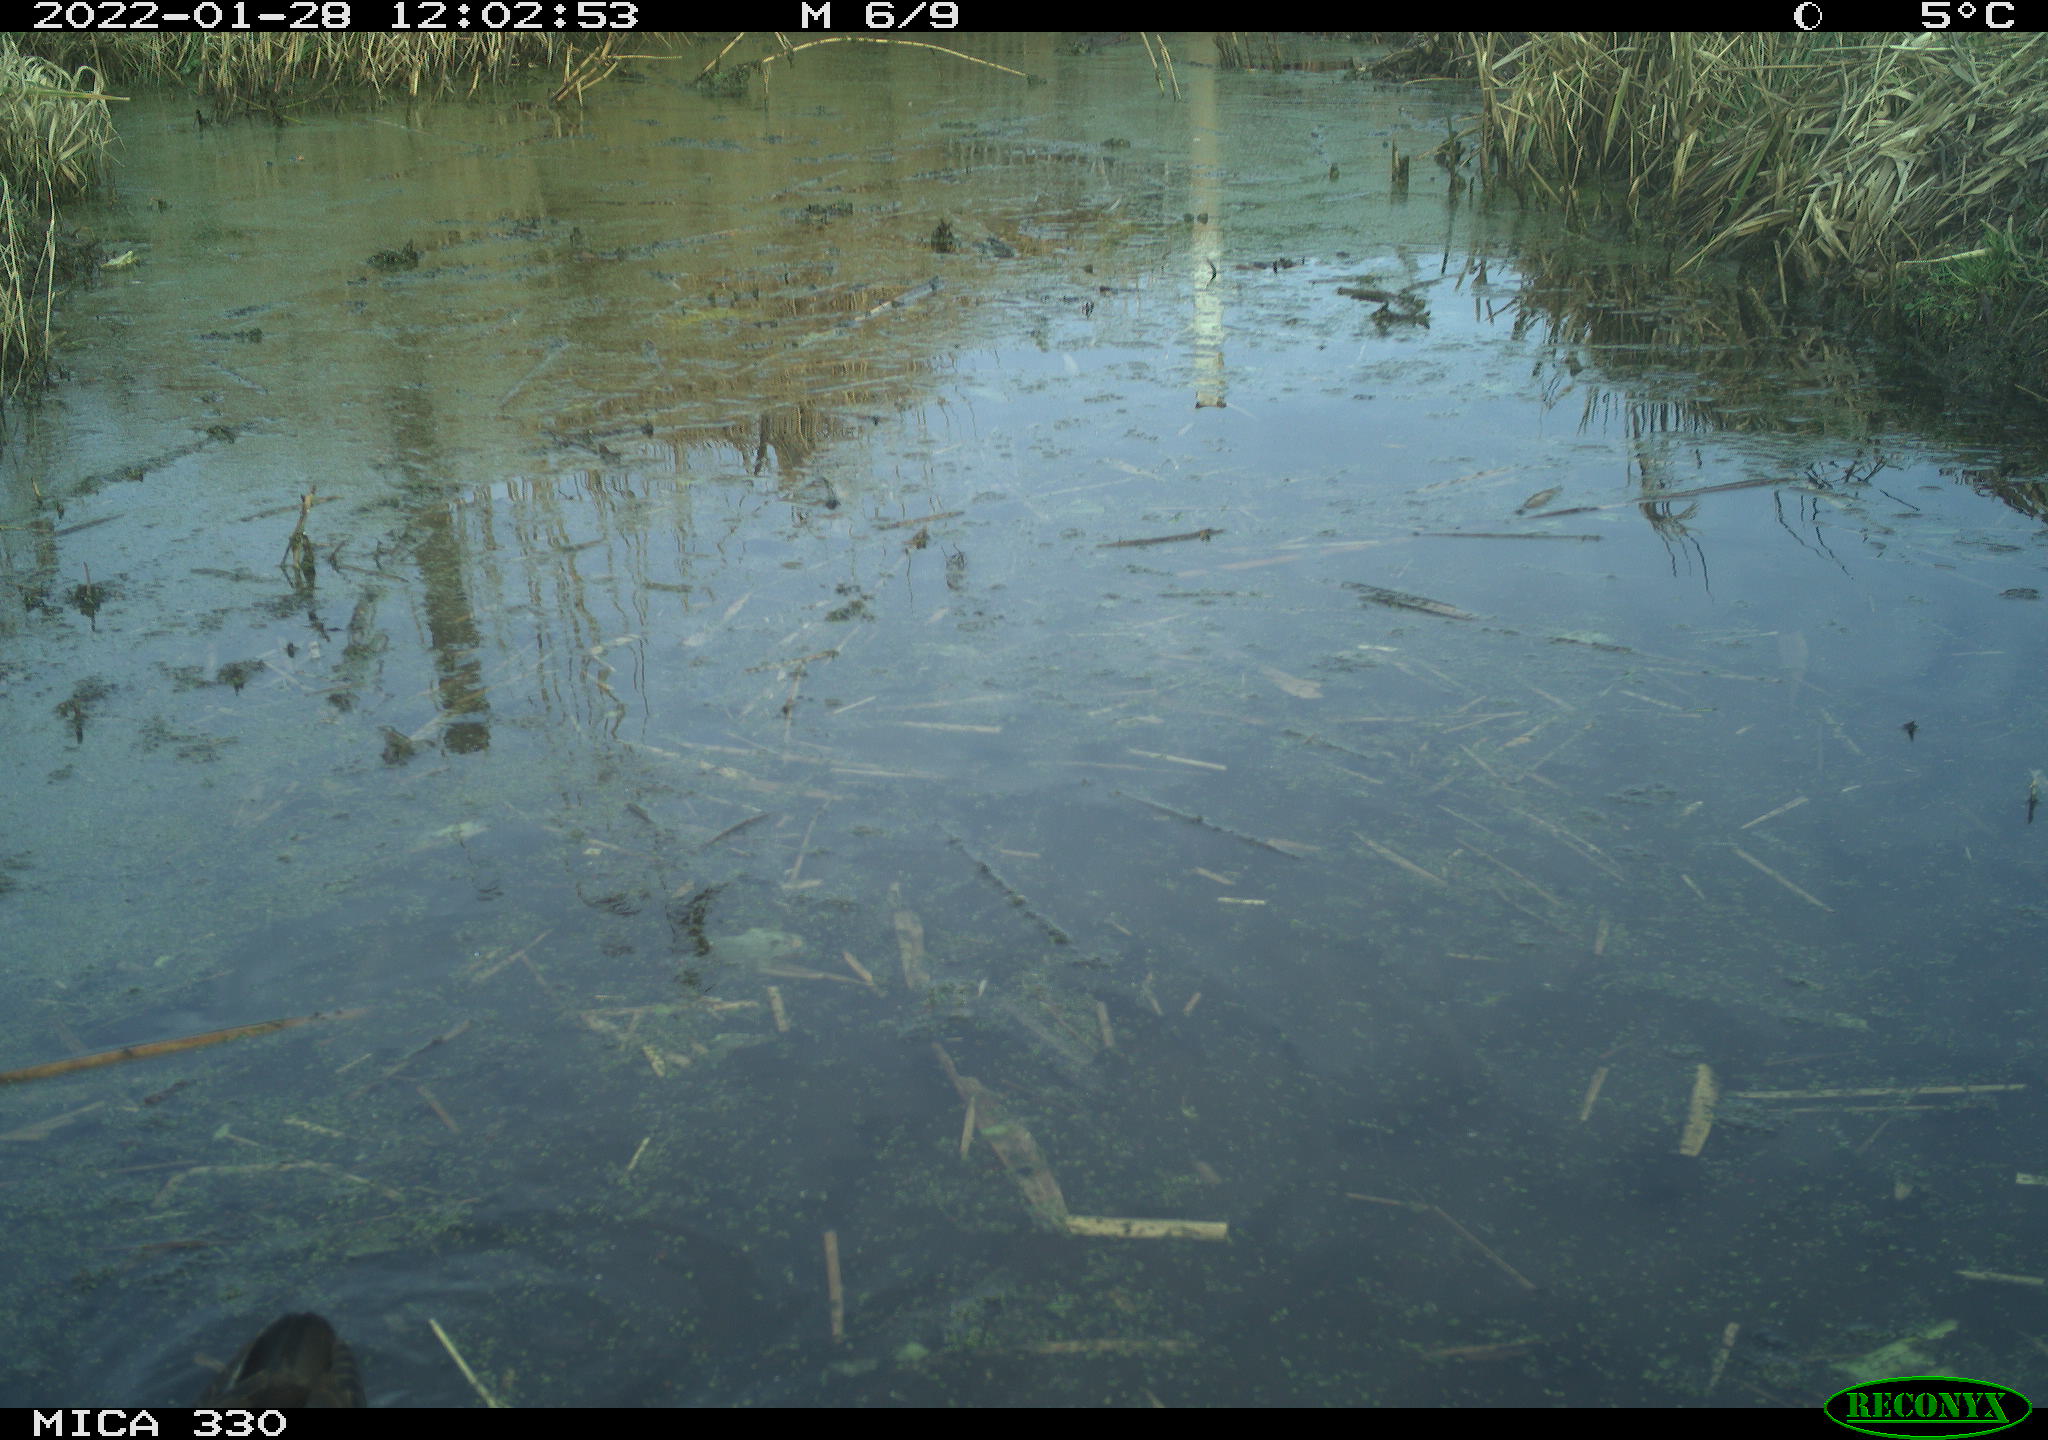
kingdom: Animalia
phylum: Chordata
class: Aves
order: Gruiformes
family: Rallidae
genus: Gallinula
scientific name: Gallinula chloropus
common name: Common moorhen
